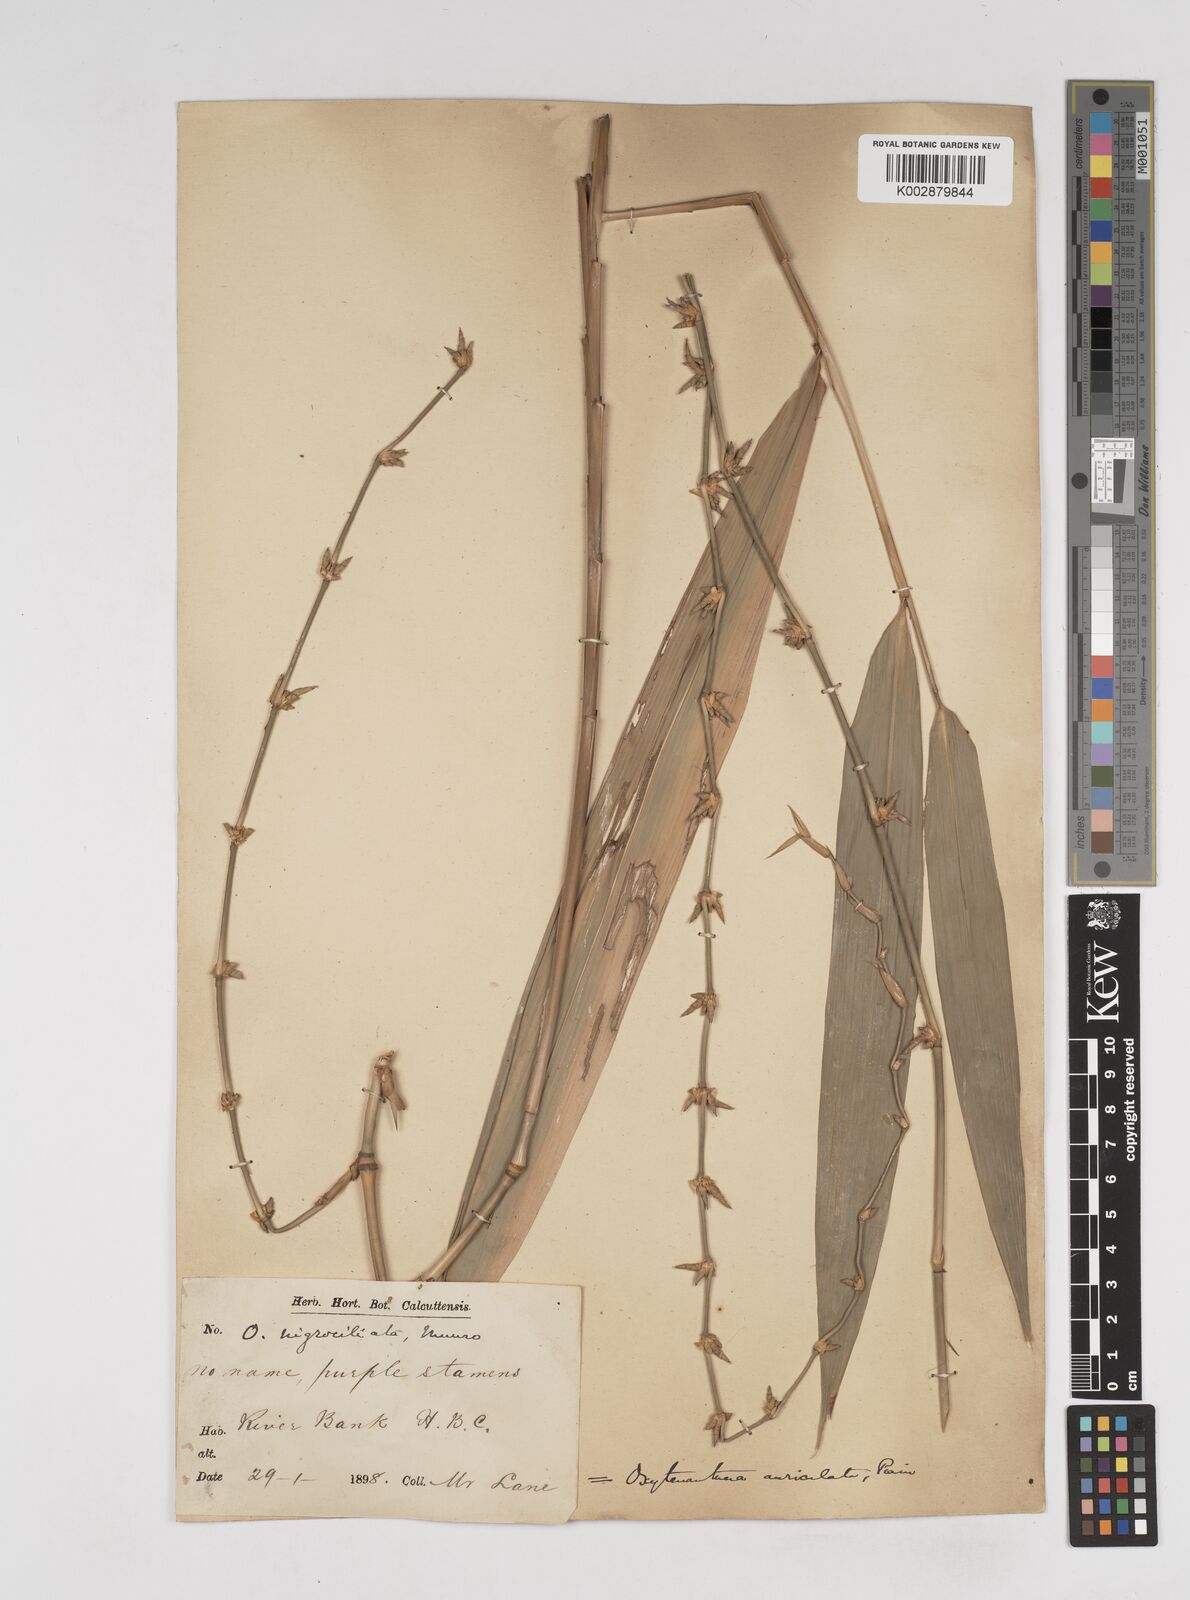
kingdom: Plantae
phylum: Tracheophyta
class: Liliopsida
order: Poales
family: Poaceae
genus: Gigantochloa
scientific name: Gigantochloa nigrociliata
